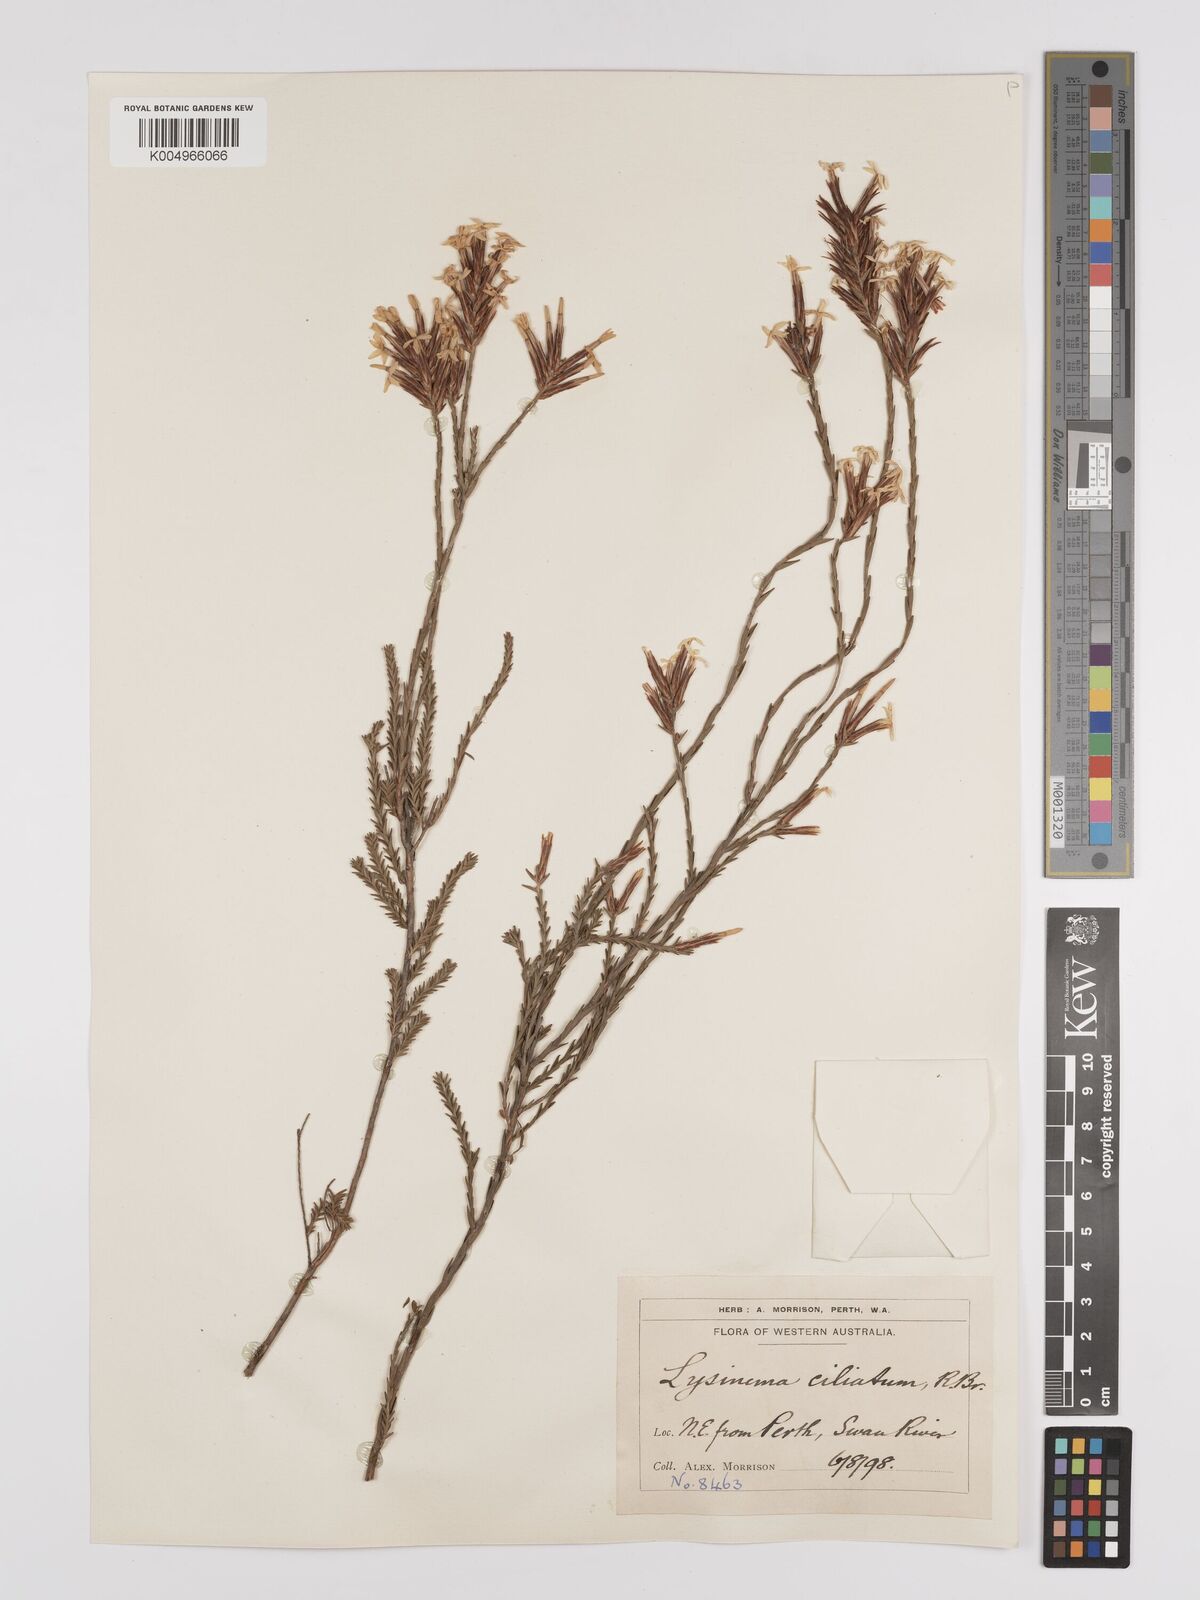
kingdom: Plantae
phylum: Tracheophyta
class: Magnoliopsida
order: Ericales
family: Ericaceae
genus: Lysinema
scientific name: Lysinema ciliatum
